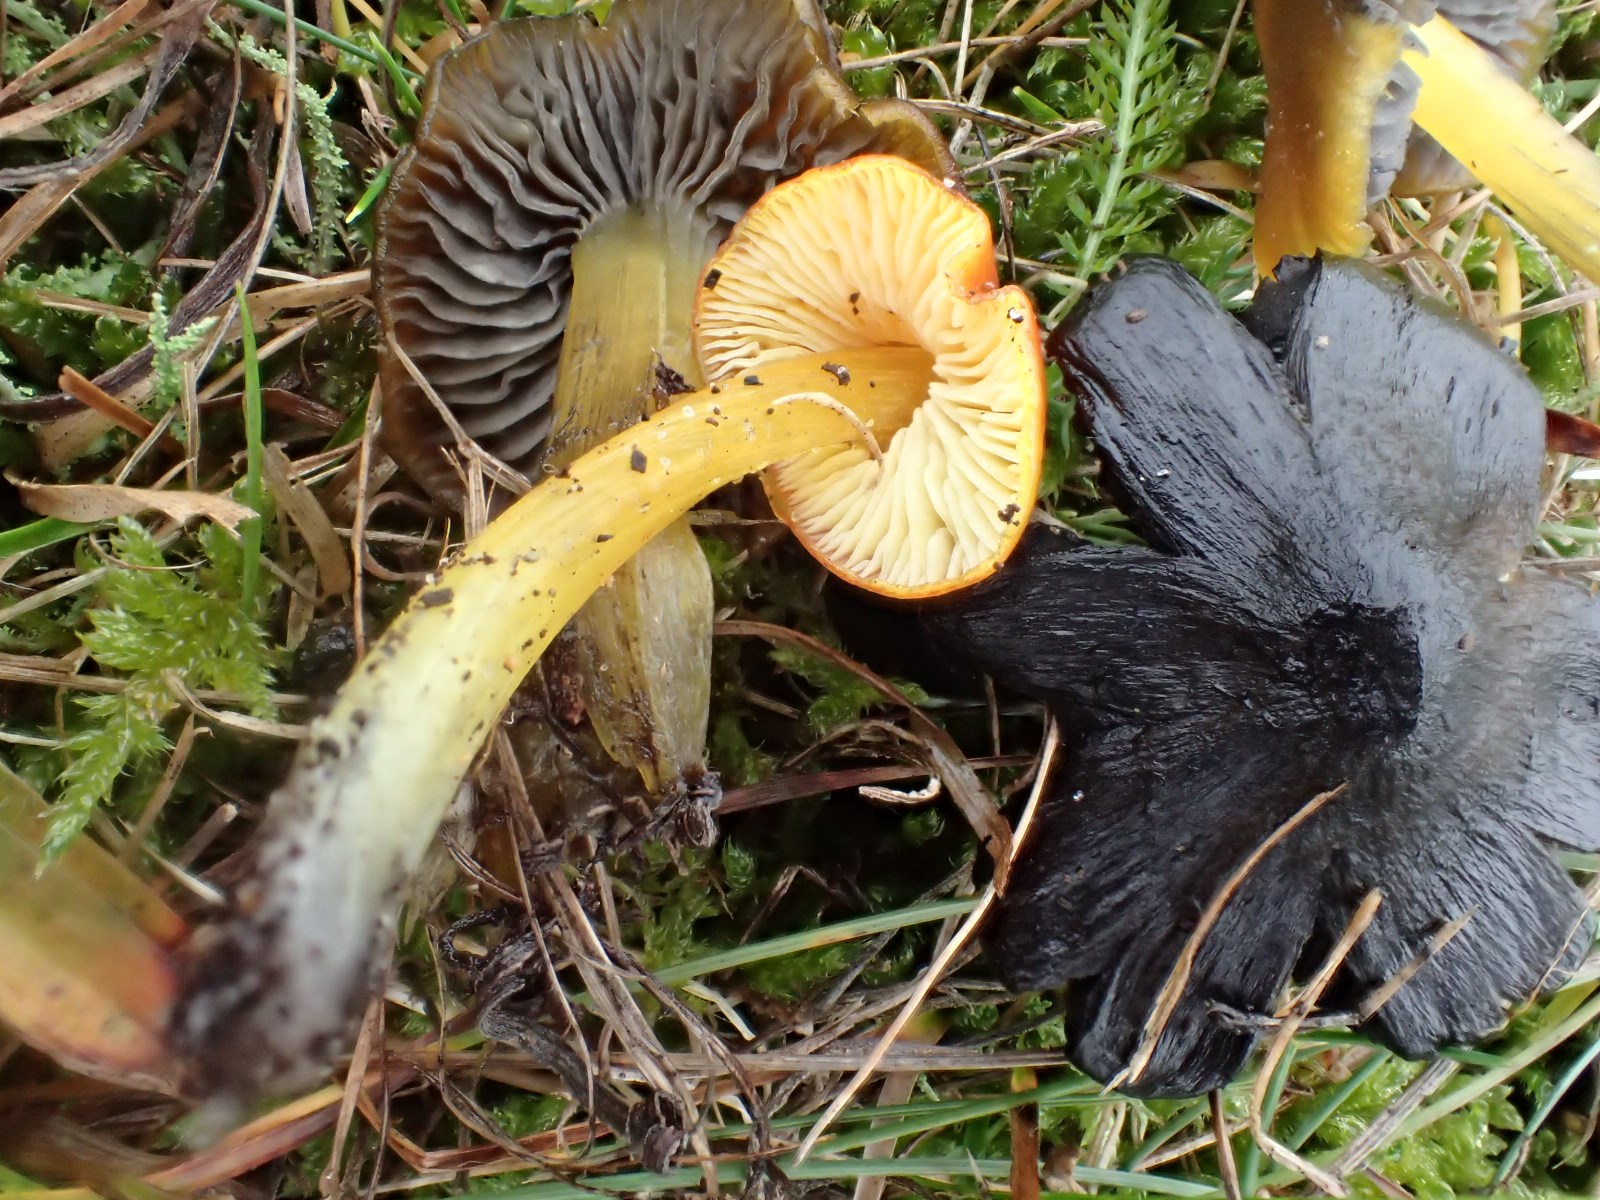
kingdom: Fungi
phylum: Basidiomycota
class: Agaricomycetes
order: Agaricales
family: Hygrophoraceae
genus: Hygrocybe
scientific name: Hygrocybe conica
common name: kegle-vokshat
